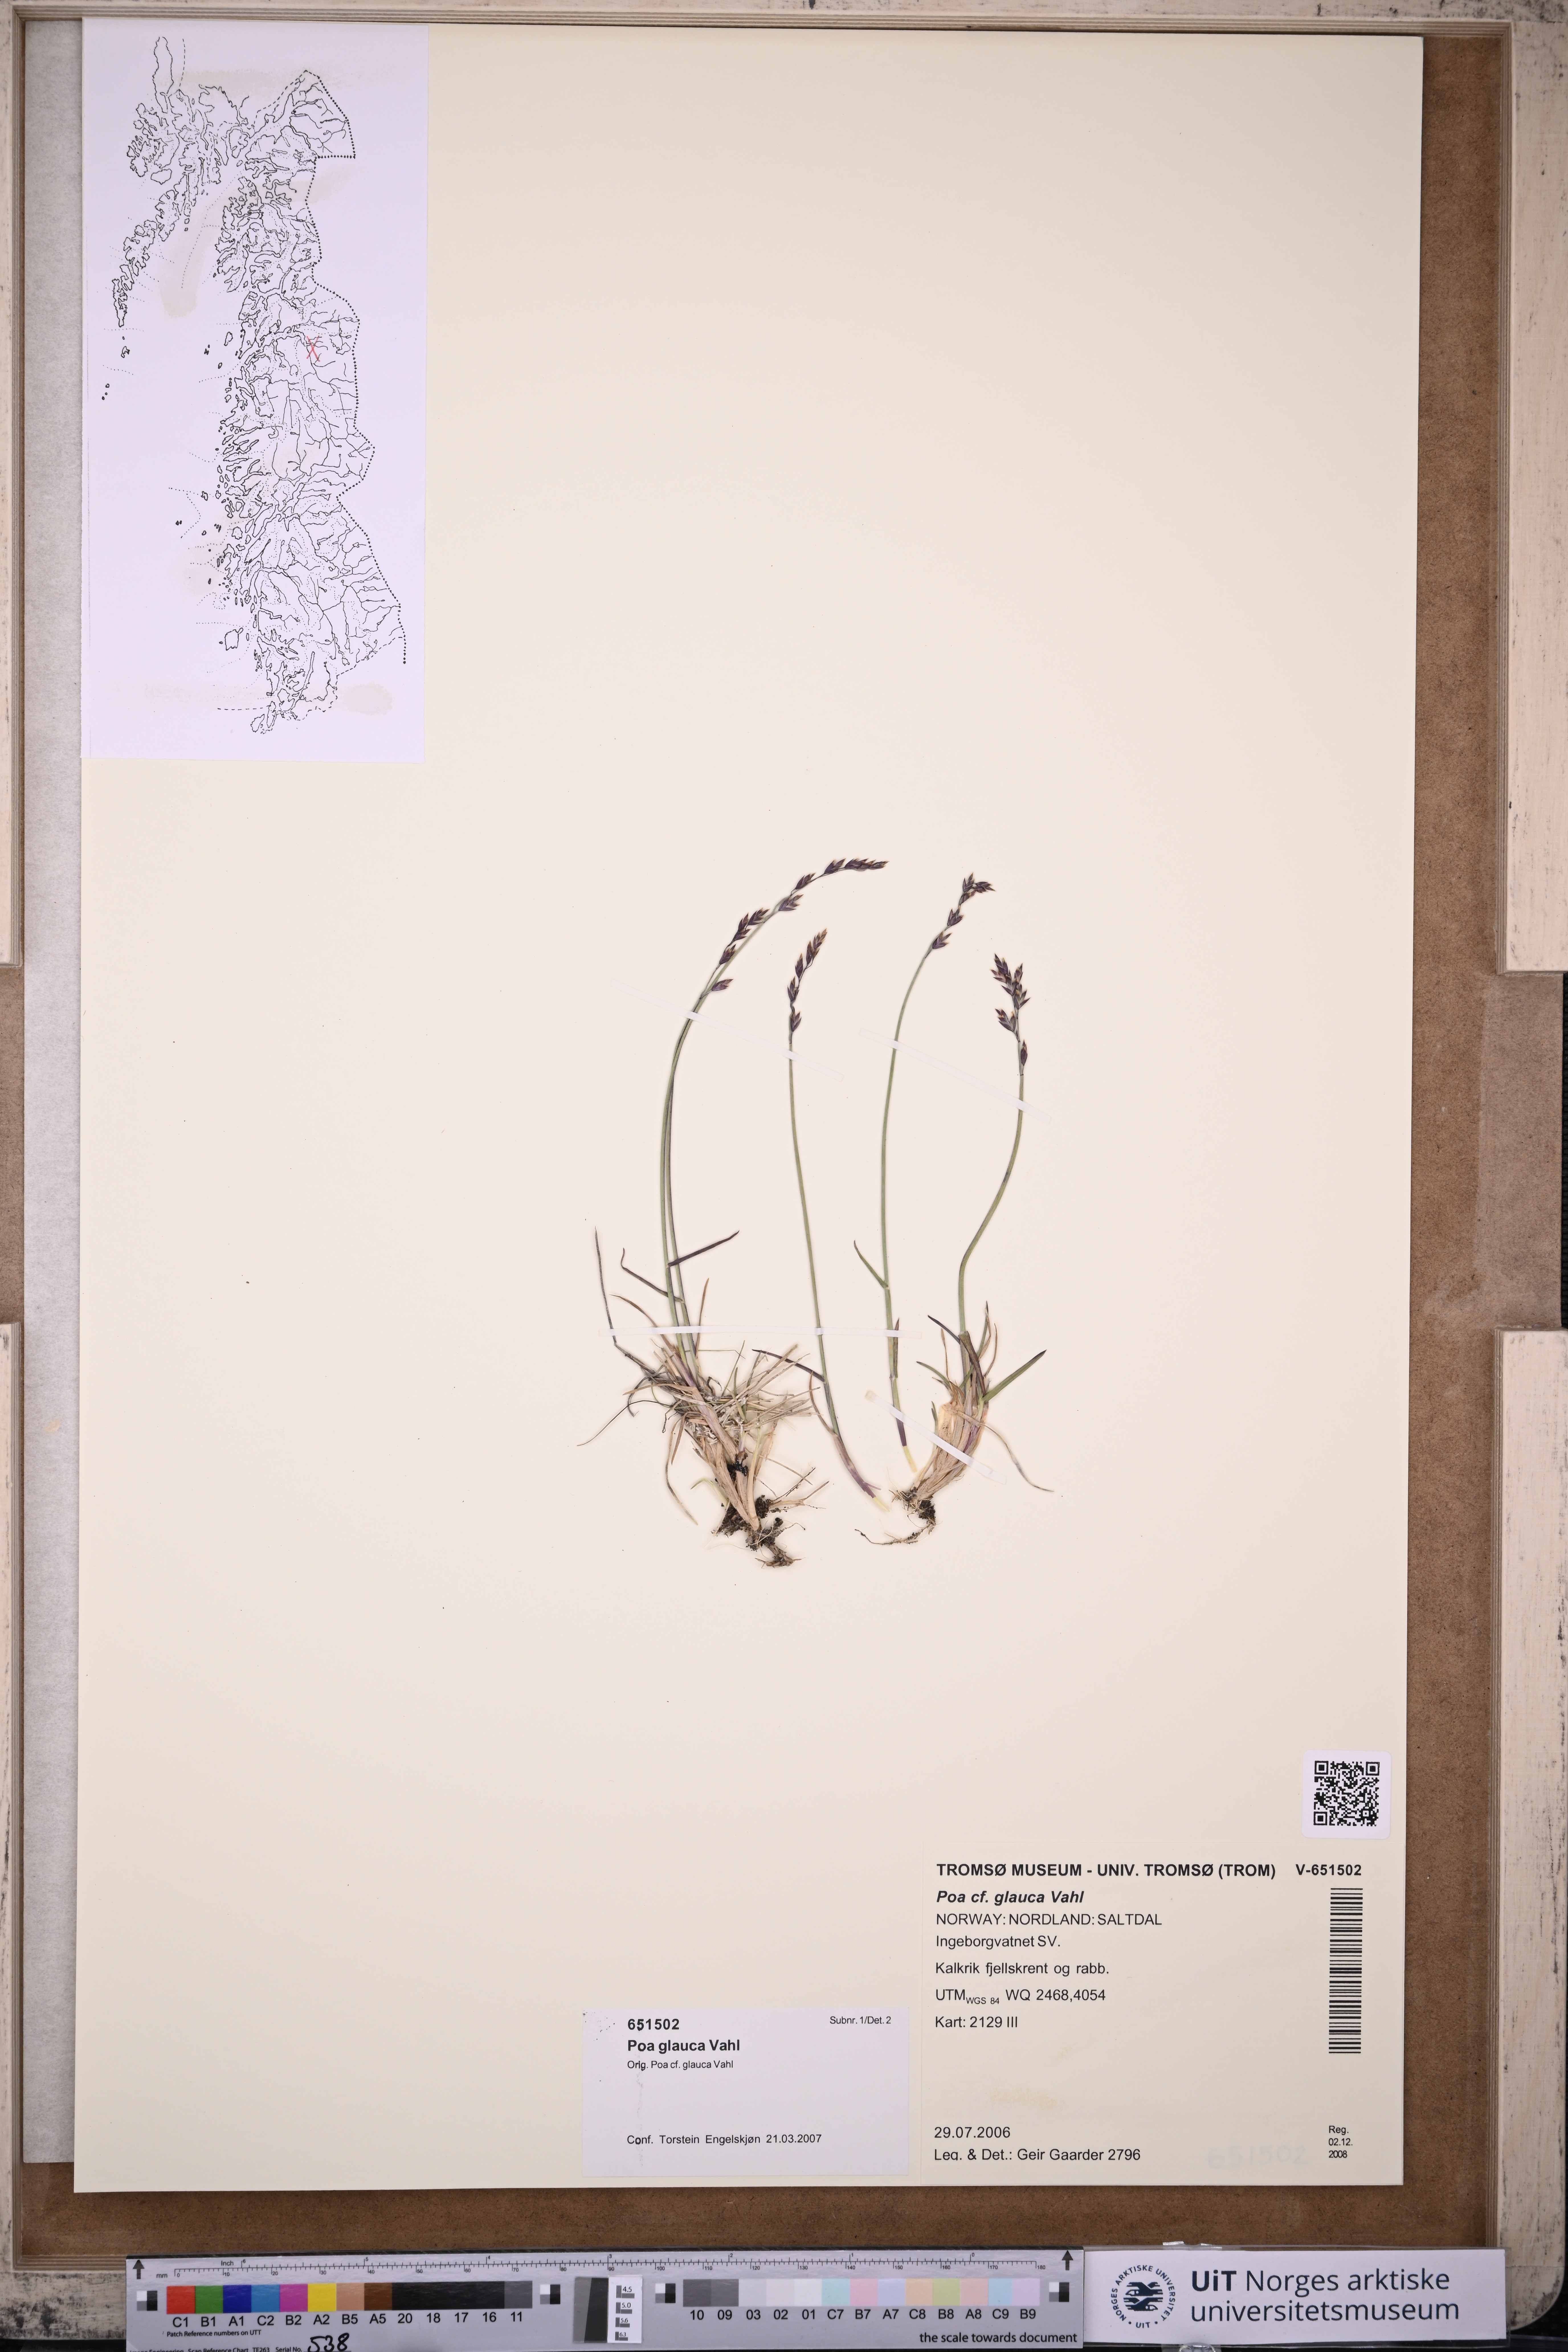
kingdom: Plantae
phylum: Tracheophyta
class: Liliopsida
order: Poales
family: Poaceae
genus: Poa
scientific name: Poa glauca
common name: Glaucous bluegrass
